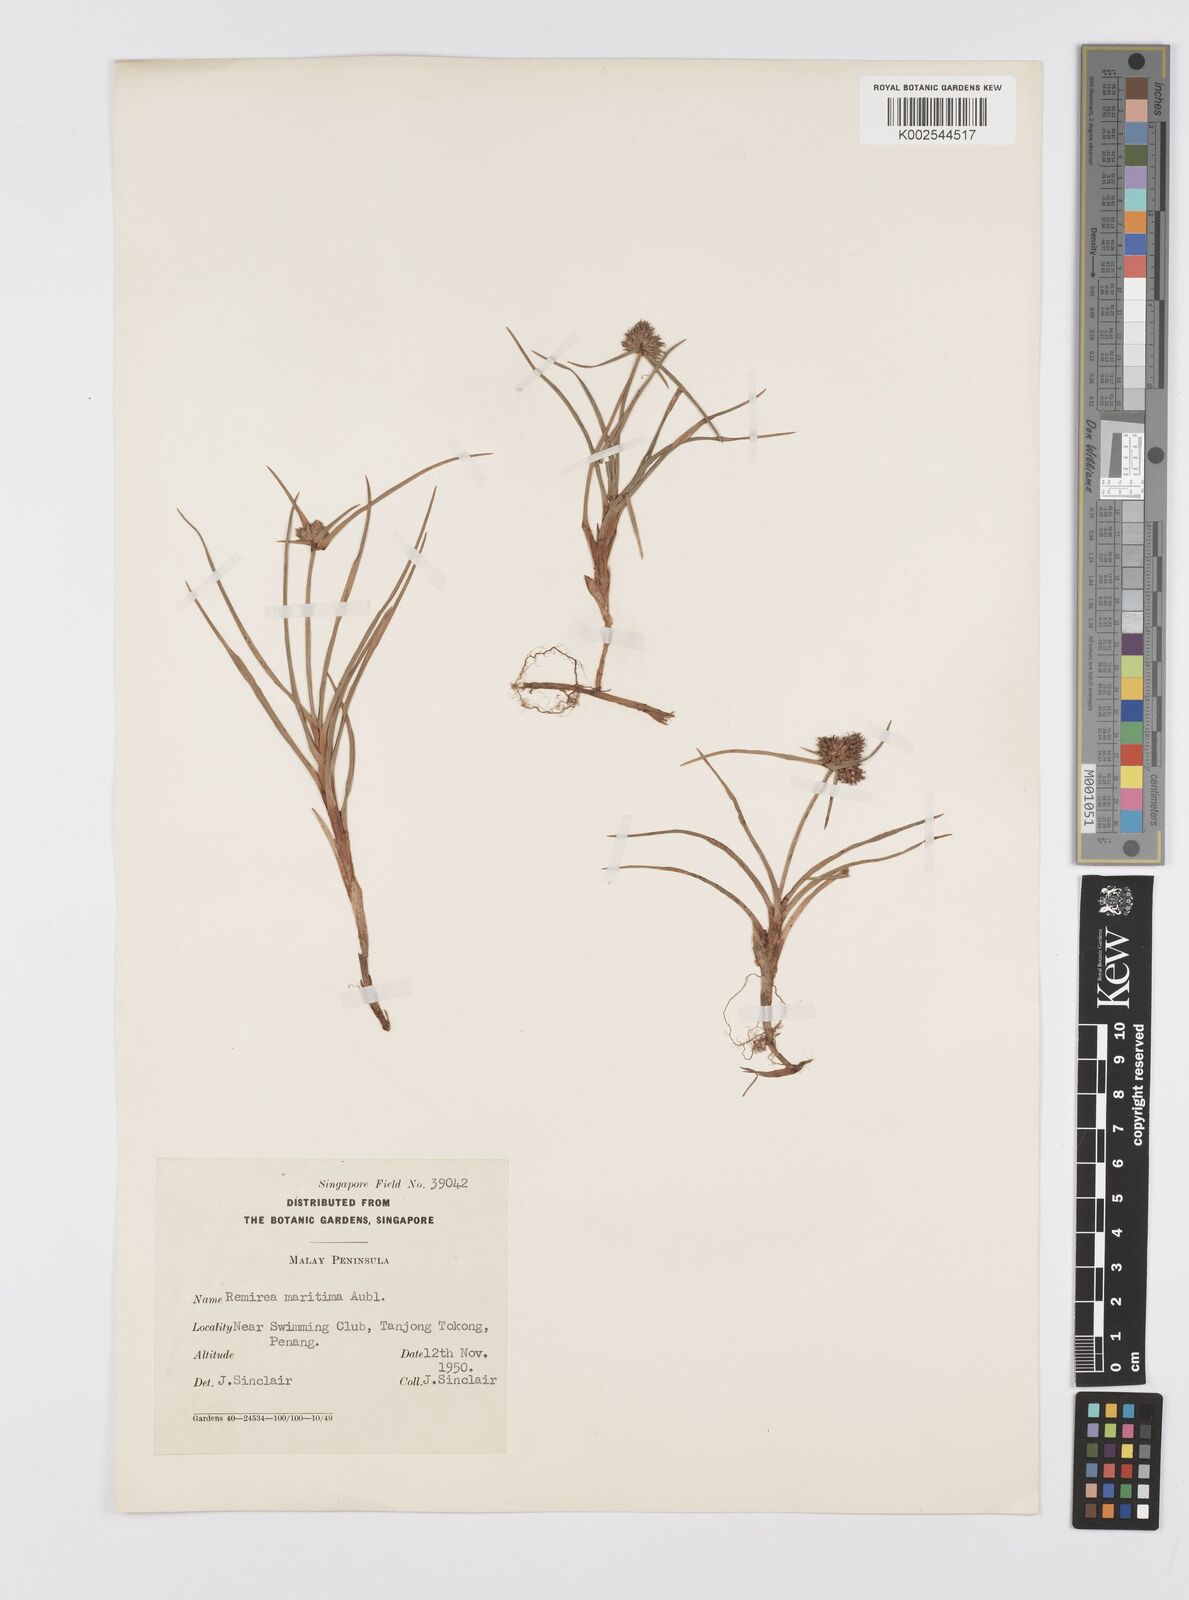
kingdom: Plantae
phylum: Tracheophyta
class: Liliopsida
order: Poales
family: Cyperaceae
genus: Cyperus
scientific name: Cyperus
